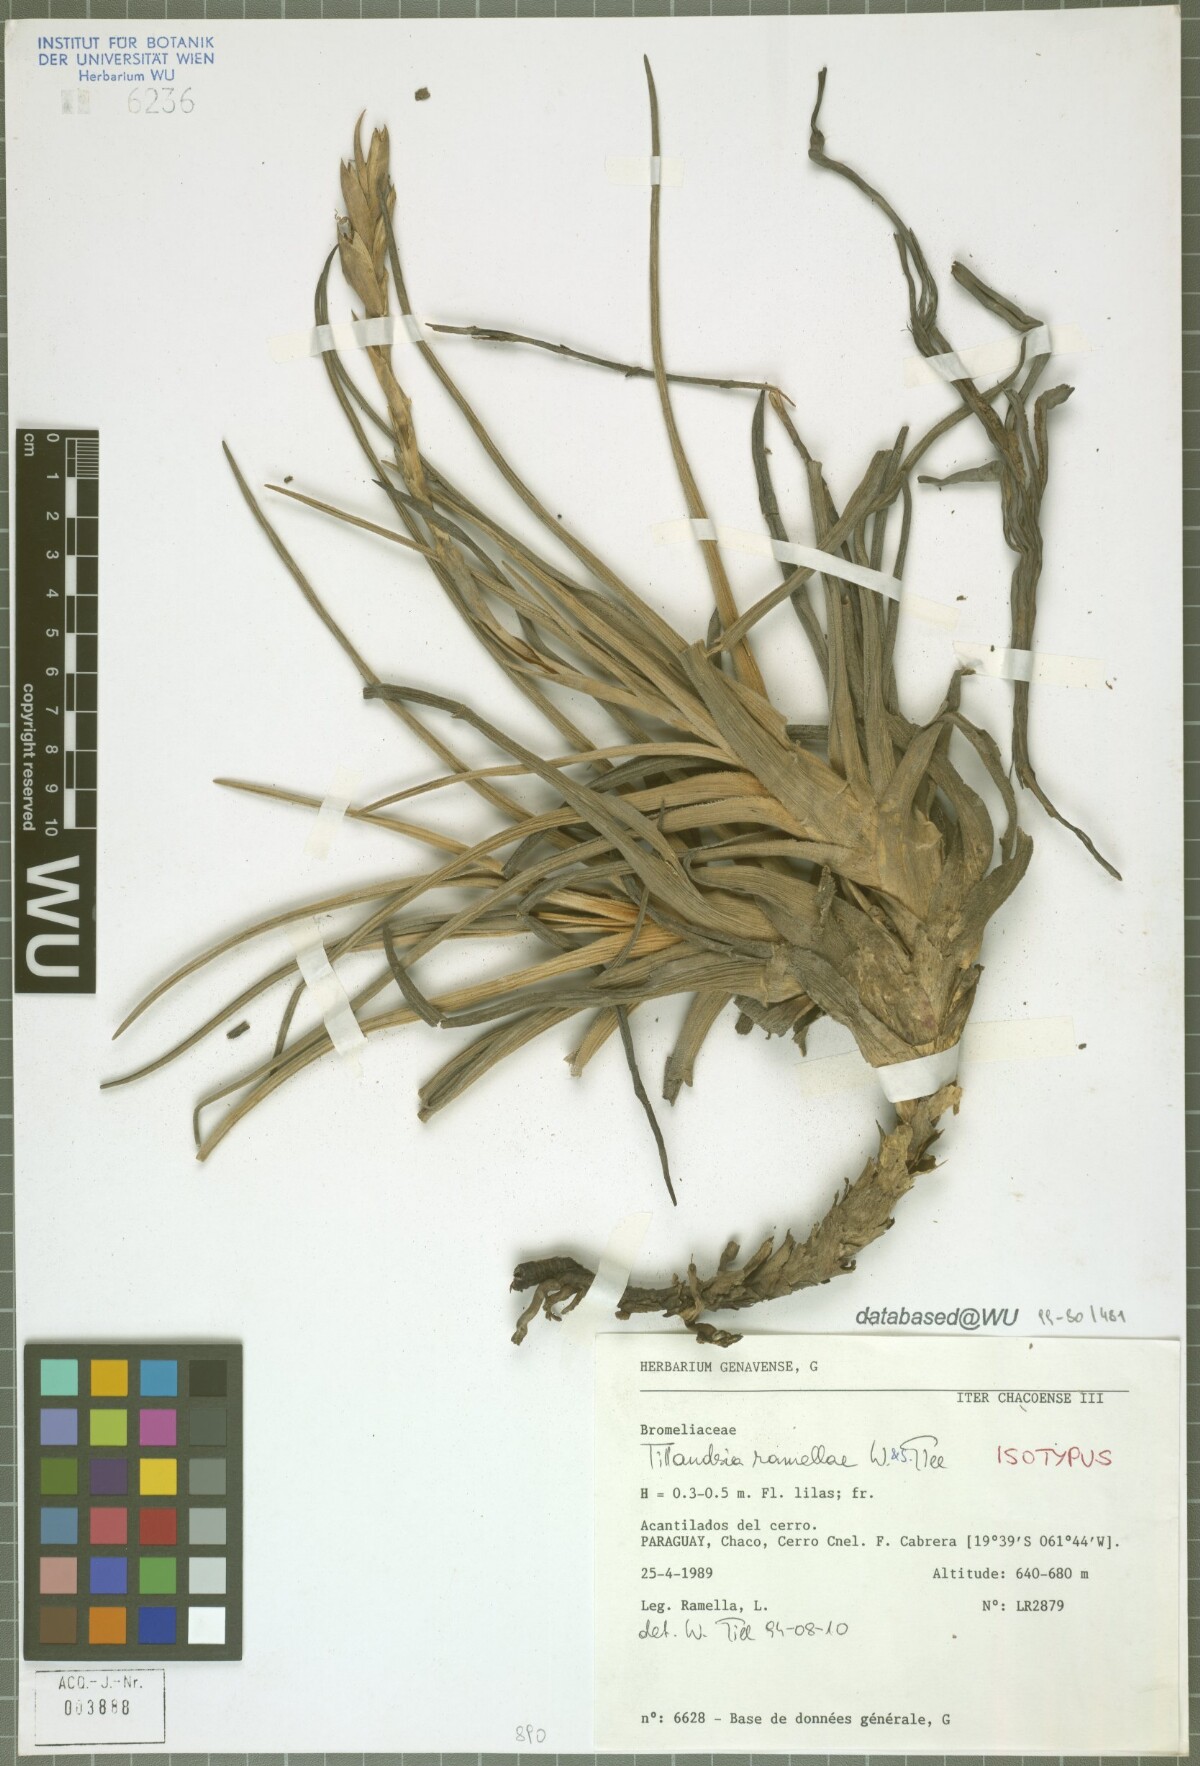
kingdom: Plantae
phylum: Tracheophyta
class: Liliopsida
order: Poales
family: Bromeliaceae
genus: Tillandsia
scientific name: Tillandsia ramellae
